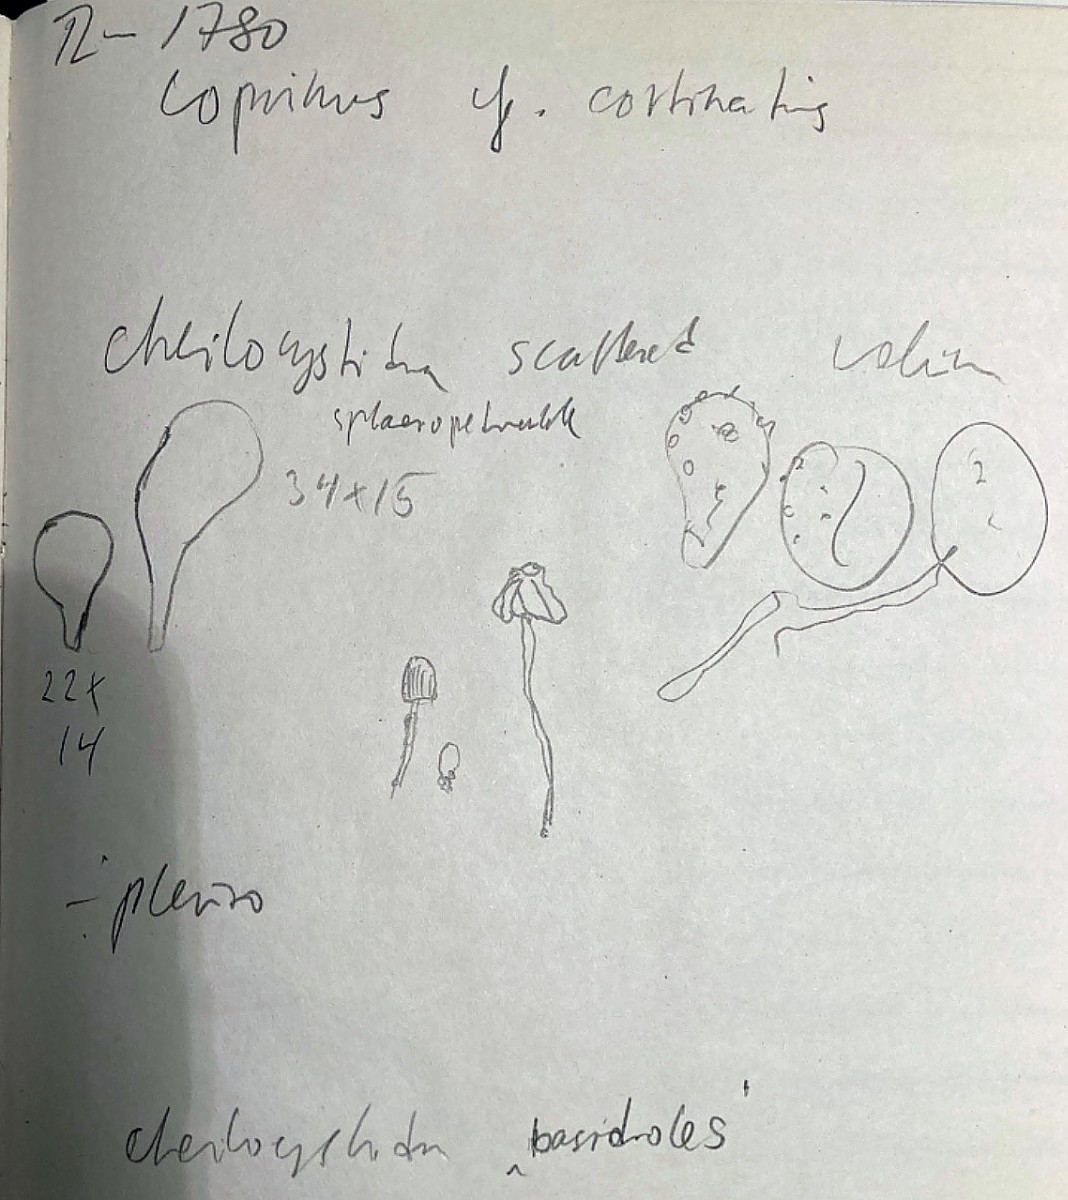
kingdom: Fungi
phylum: Basidiomycota
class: Agaricomycetes
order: Agaricales
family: Psathyrellaceae
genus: Coprinopsis
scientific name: Coprinopsis cortinata
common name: slør-blækhat
